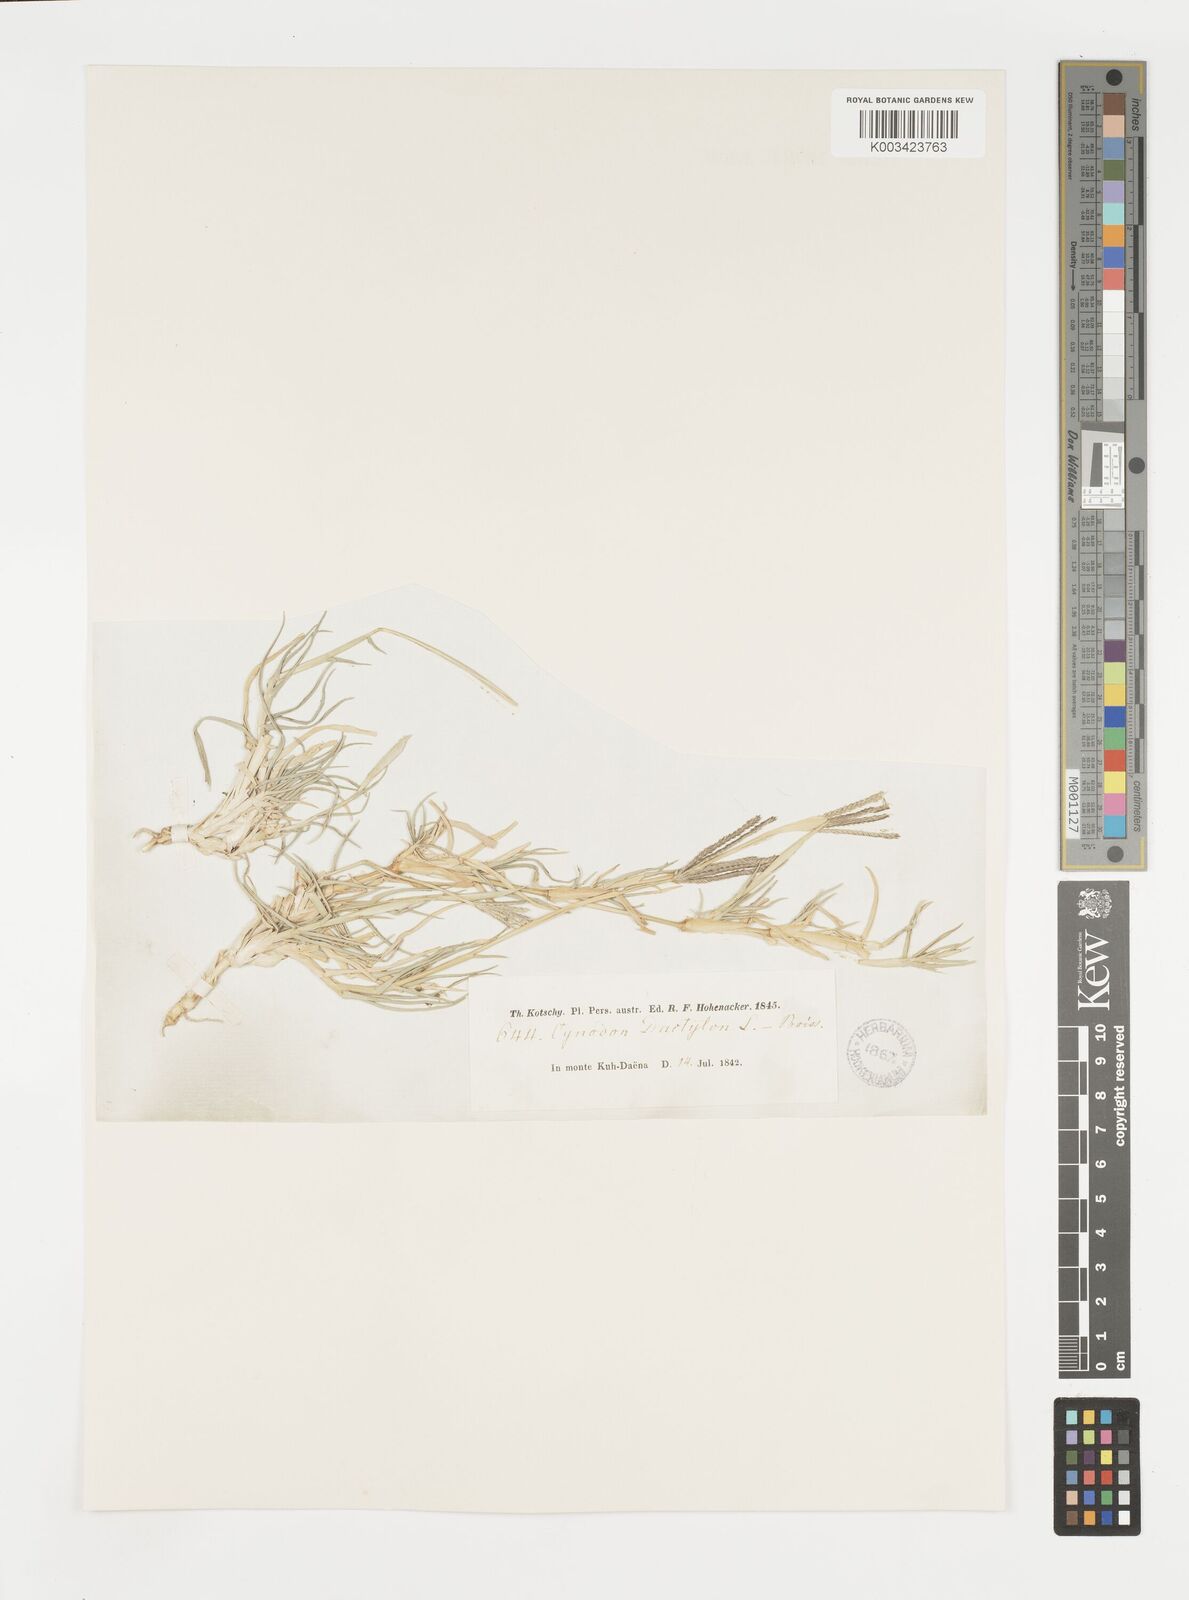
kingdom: Plantae
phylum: Tracheophyta
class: Liliopsida
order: Poales
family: Poaceae
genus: Cynodon
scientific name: Cynodon dactylon
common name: Bermuda grass
